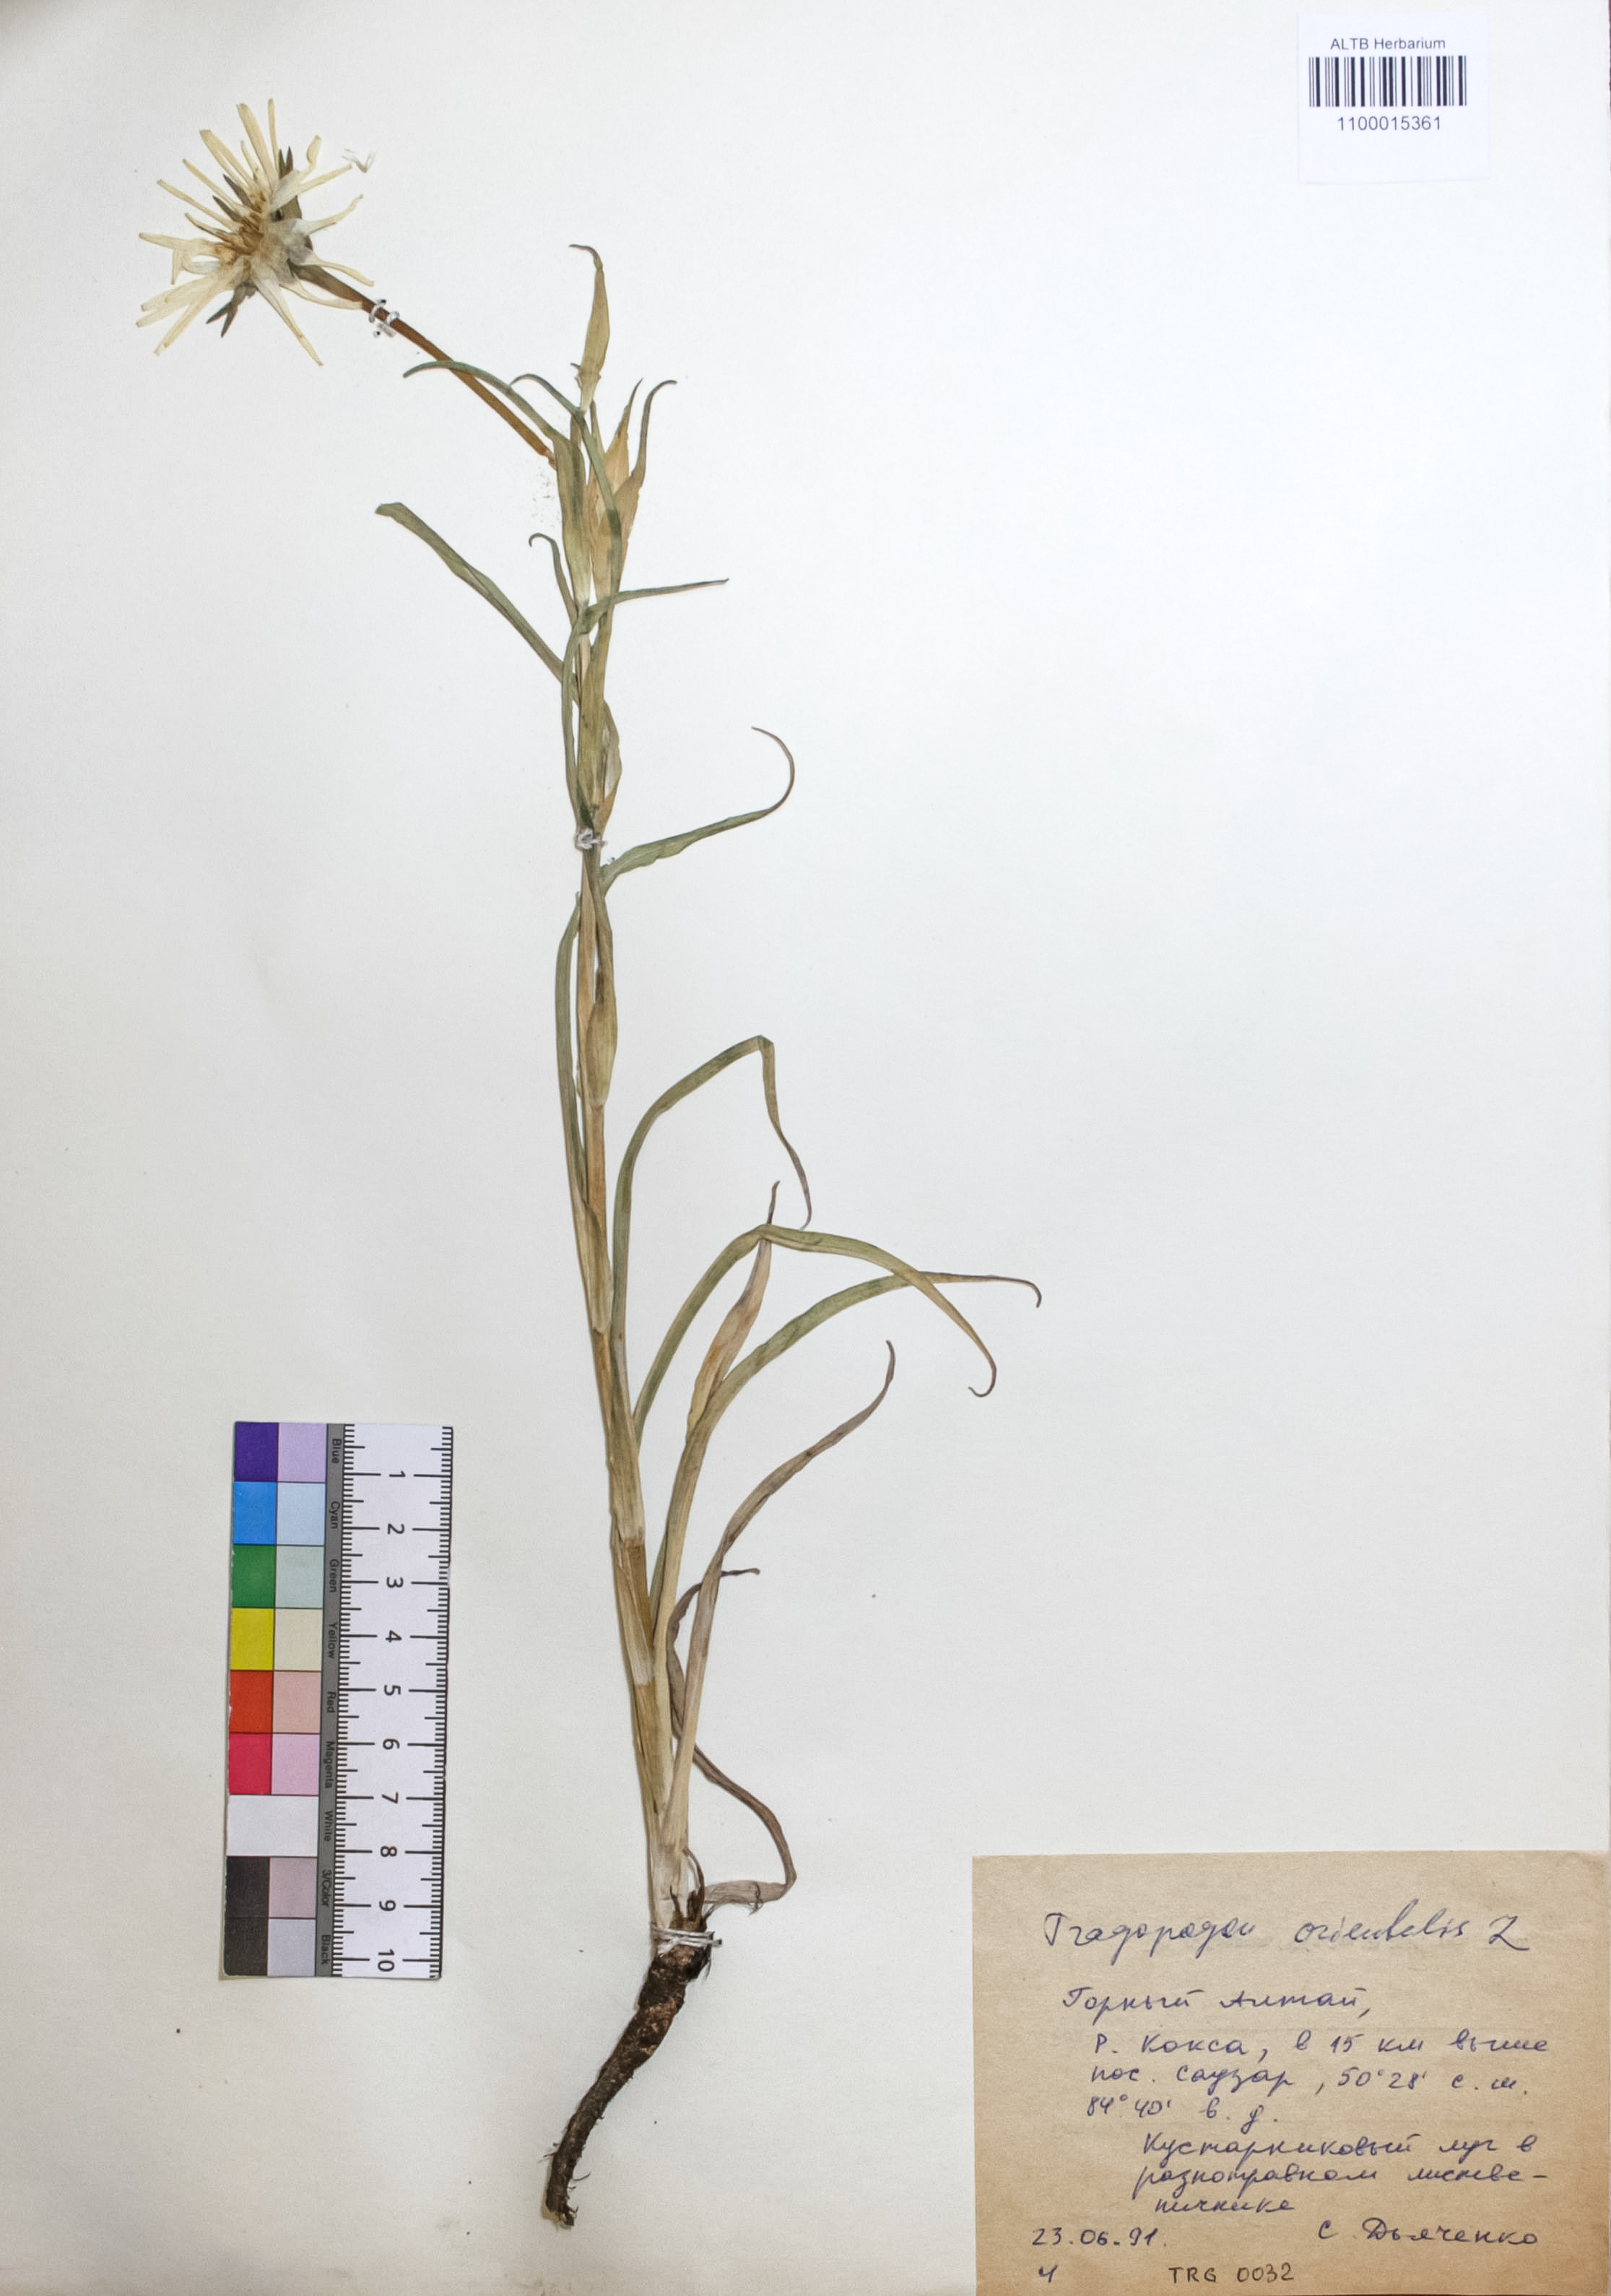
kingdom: Plantae
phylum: Tracheophyta
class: Magnoliopsida
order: Asterales
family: Asteraceae
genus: Tragopogon
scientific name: Tragopogon orientalis
